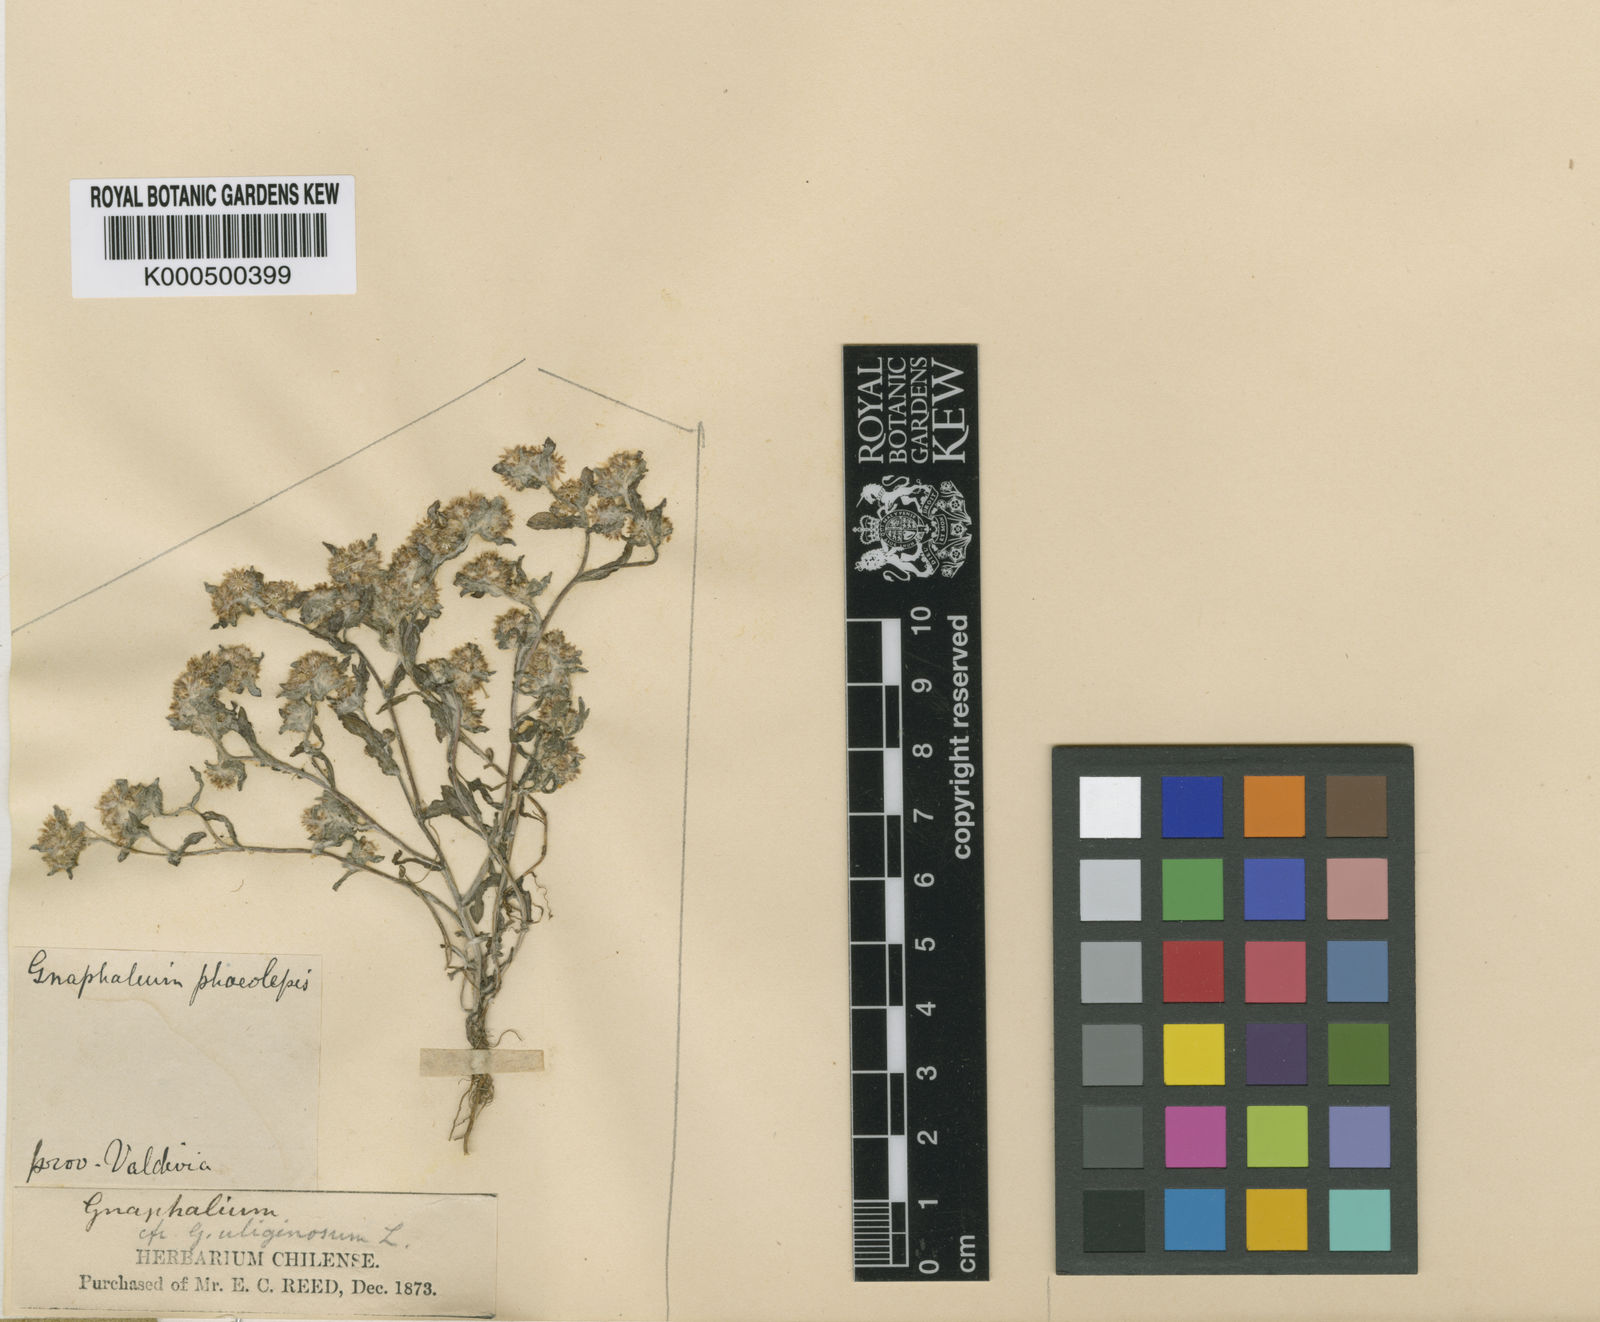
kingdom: Plantae
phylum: Tracheophyta
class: Magnoliopsida
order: Asterales
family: Asteraceae
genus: Pseudognaphalium
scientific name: Pseudognaphalium aldunateoides
